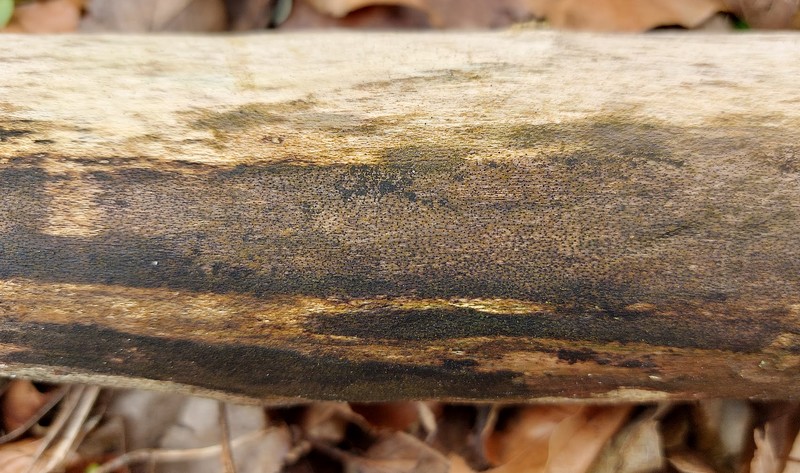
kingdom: Fungi
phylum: Ascomycota
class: Sordariomycetes
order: Xylariales
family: Diatrypaceae
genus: Eutypa
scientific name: Eutypa maura
